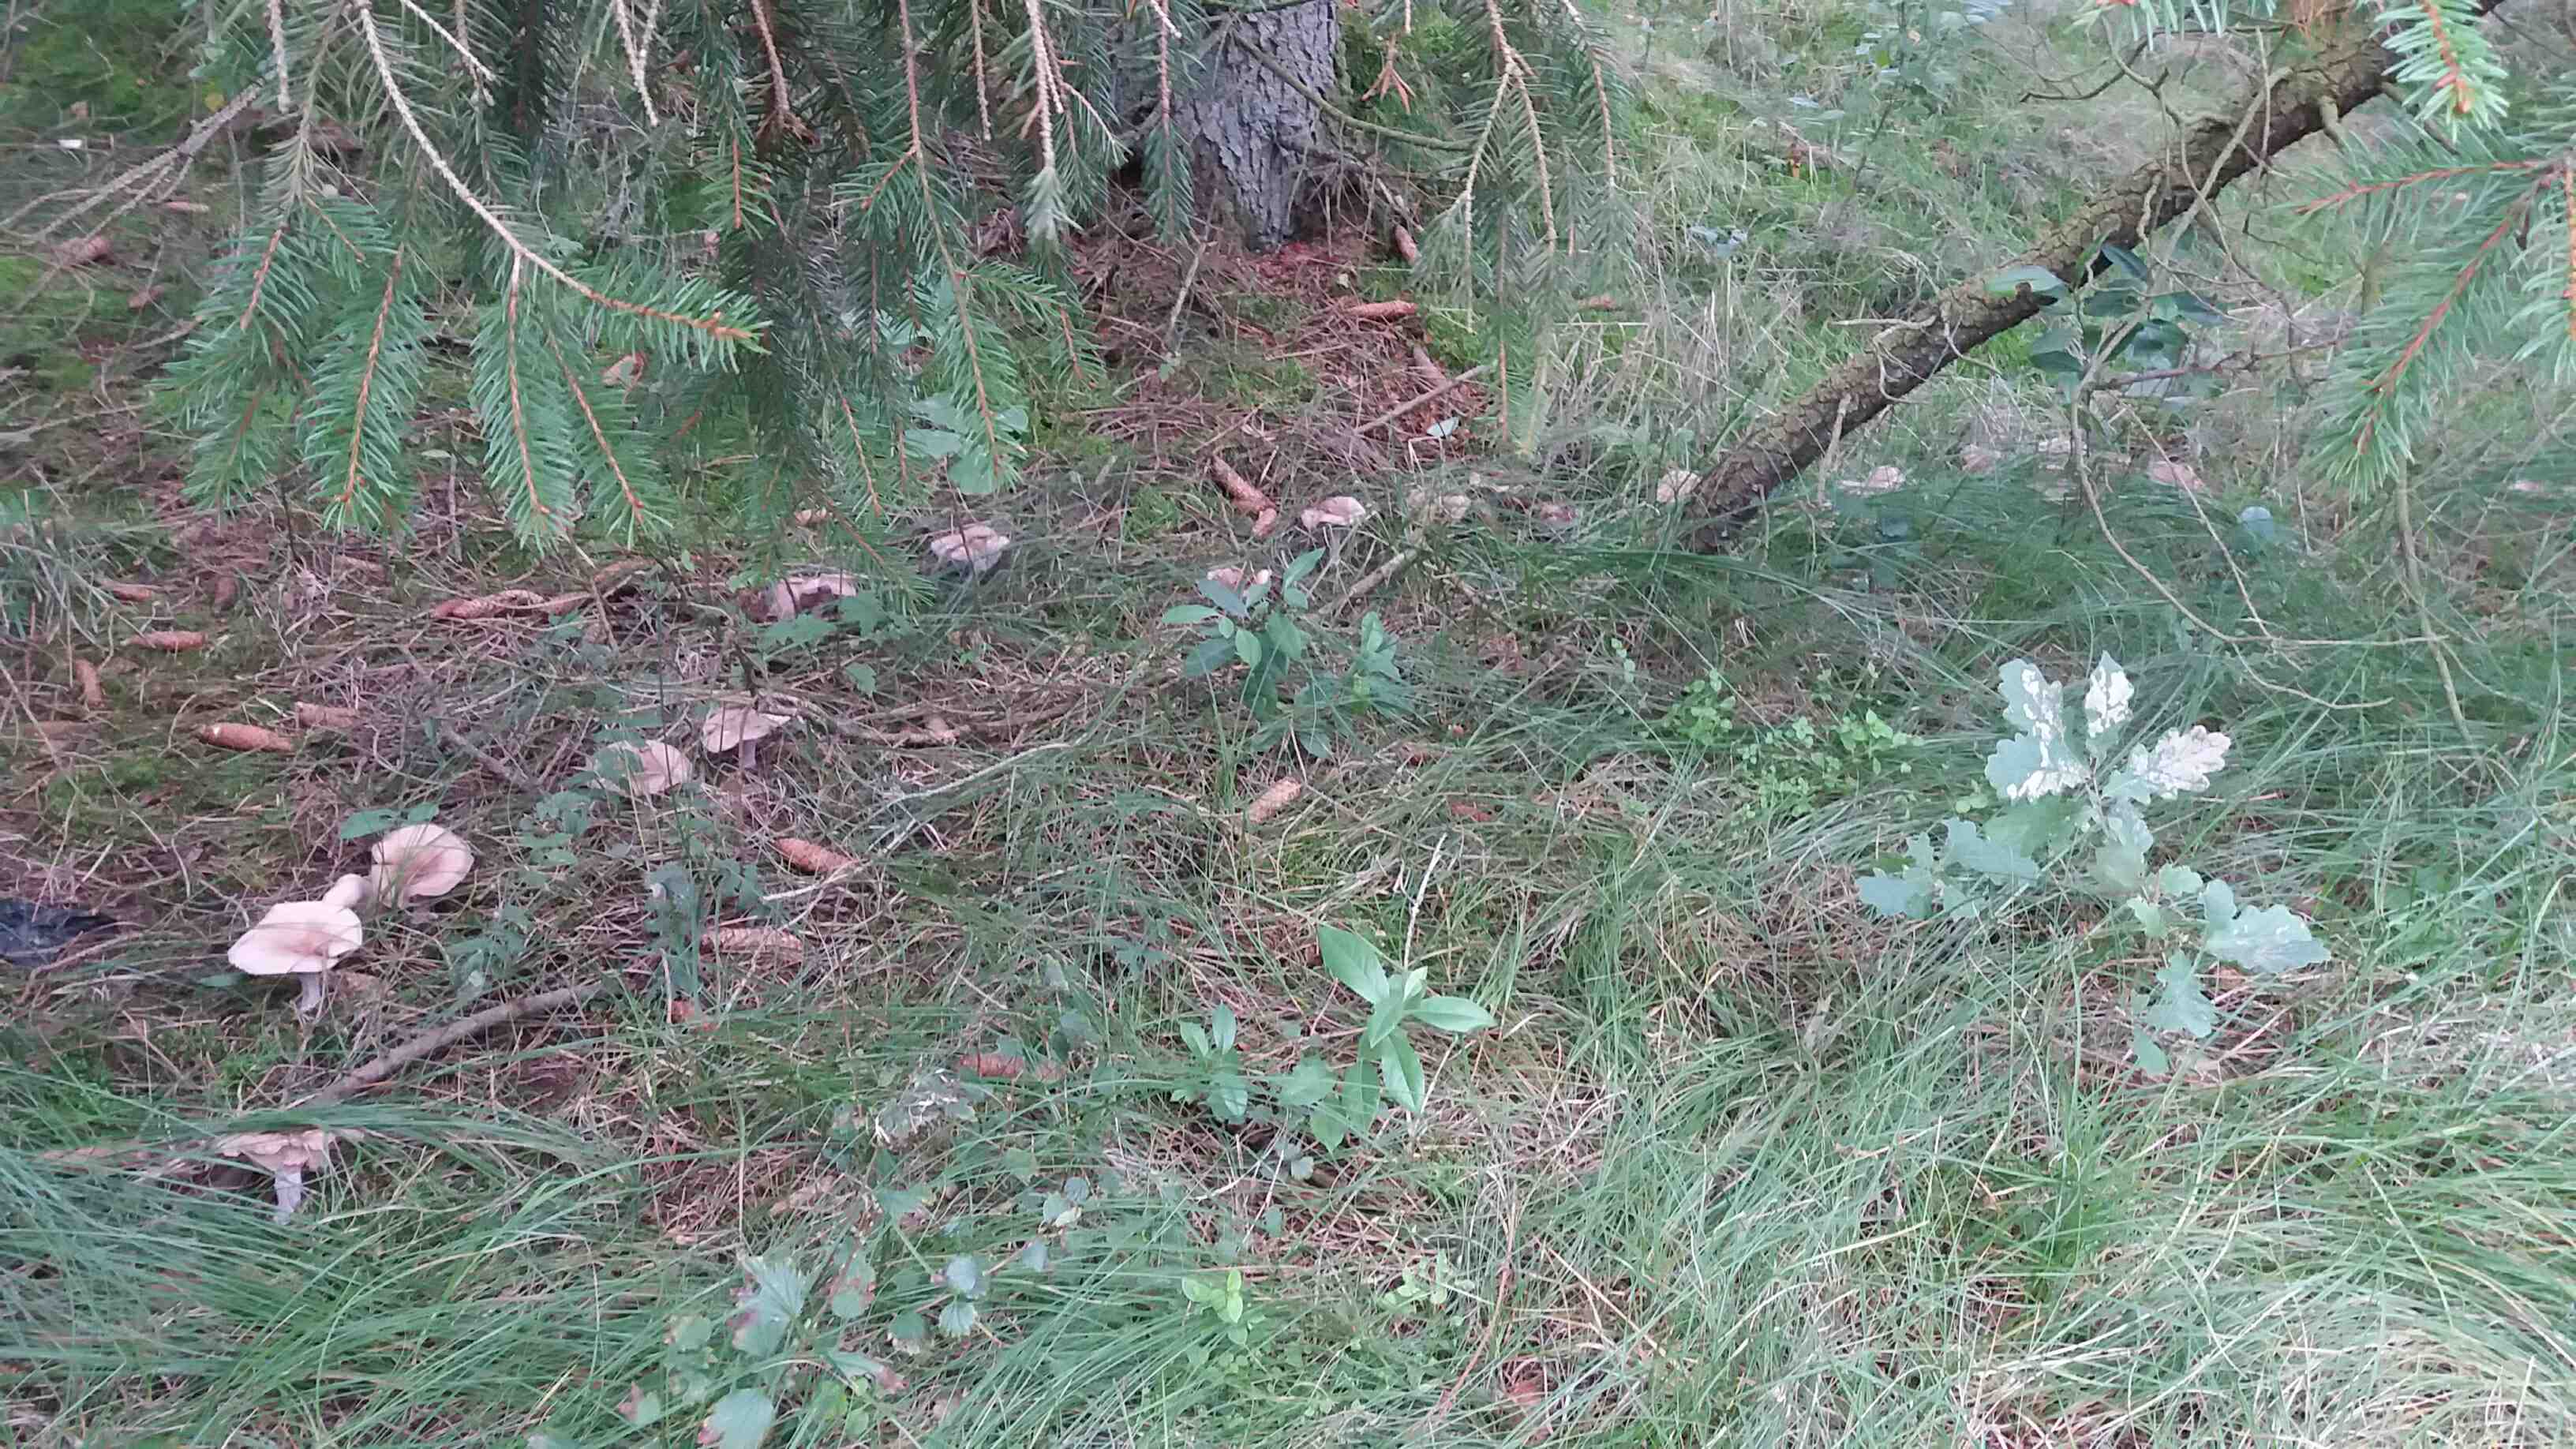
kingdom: Fungi
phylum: Basidiomycota
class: Agaricomycetes
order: Agaricales
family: Tricholomataceae
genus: Lepista
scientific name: Lepista nuda
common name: violet hekseringshat
